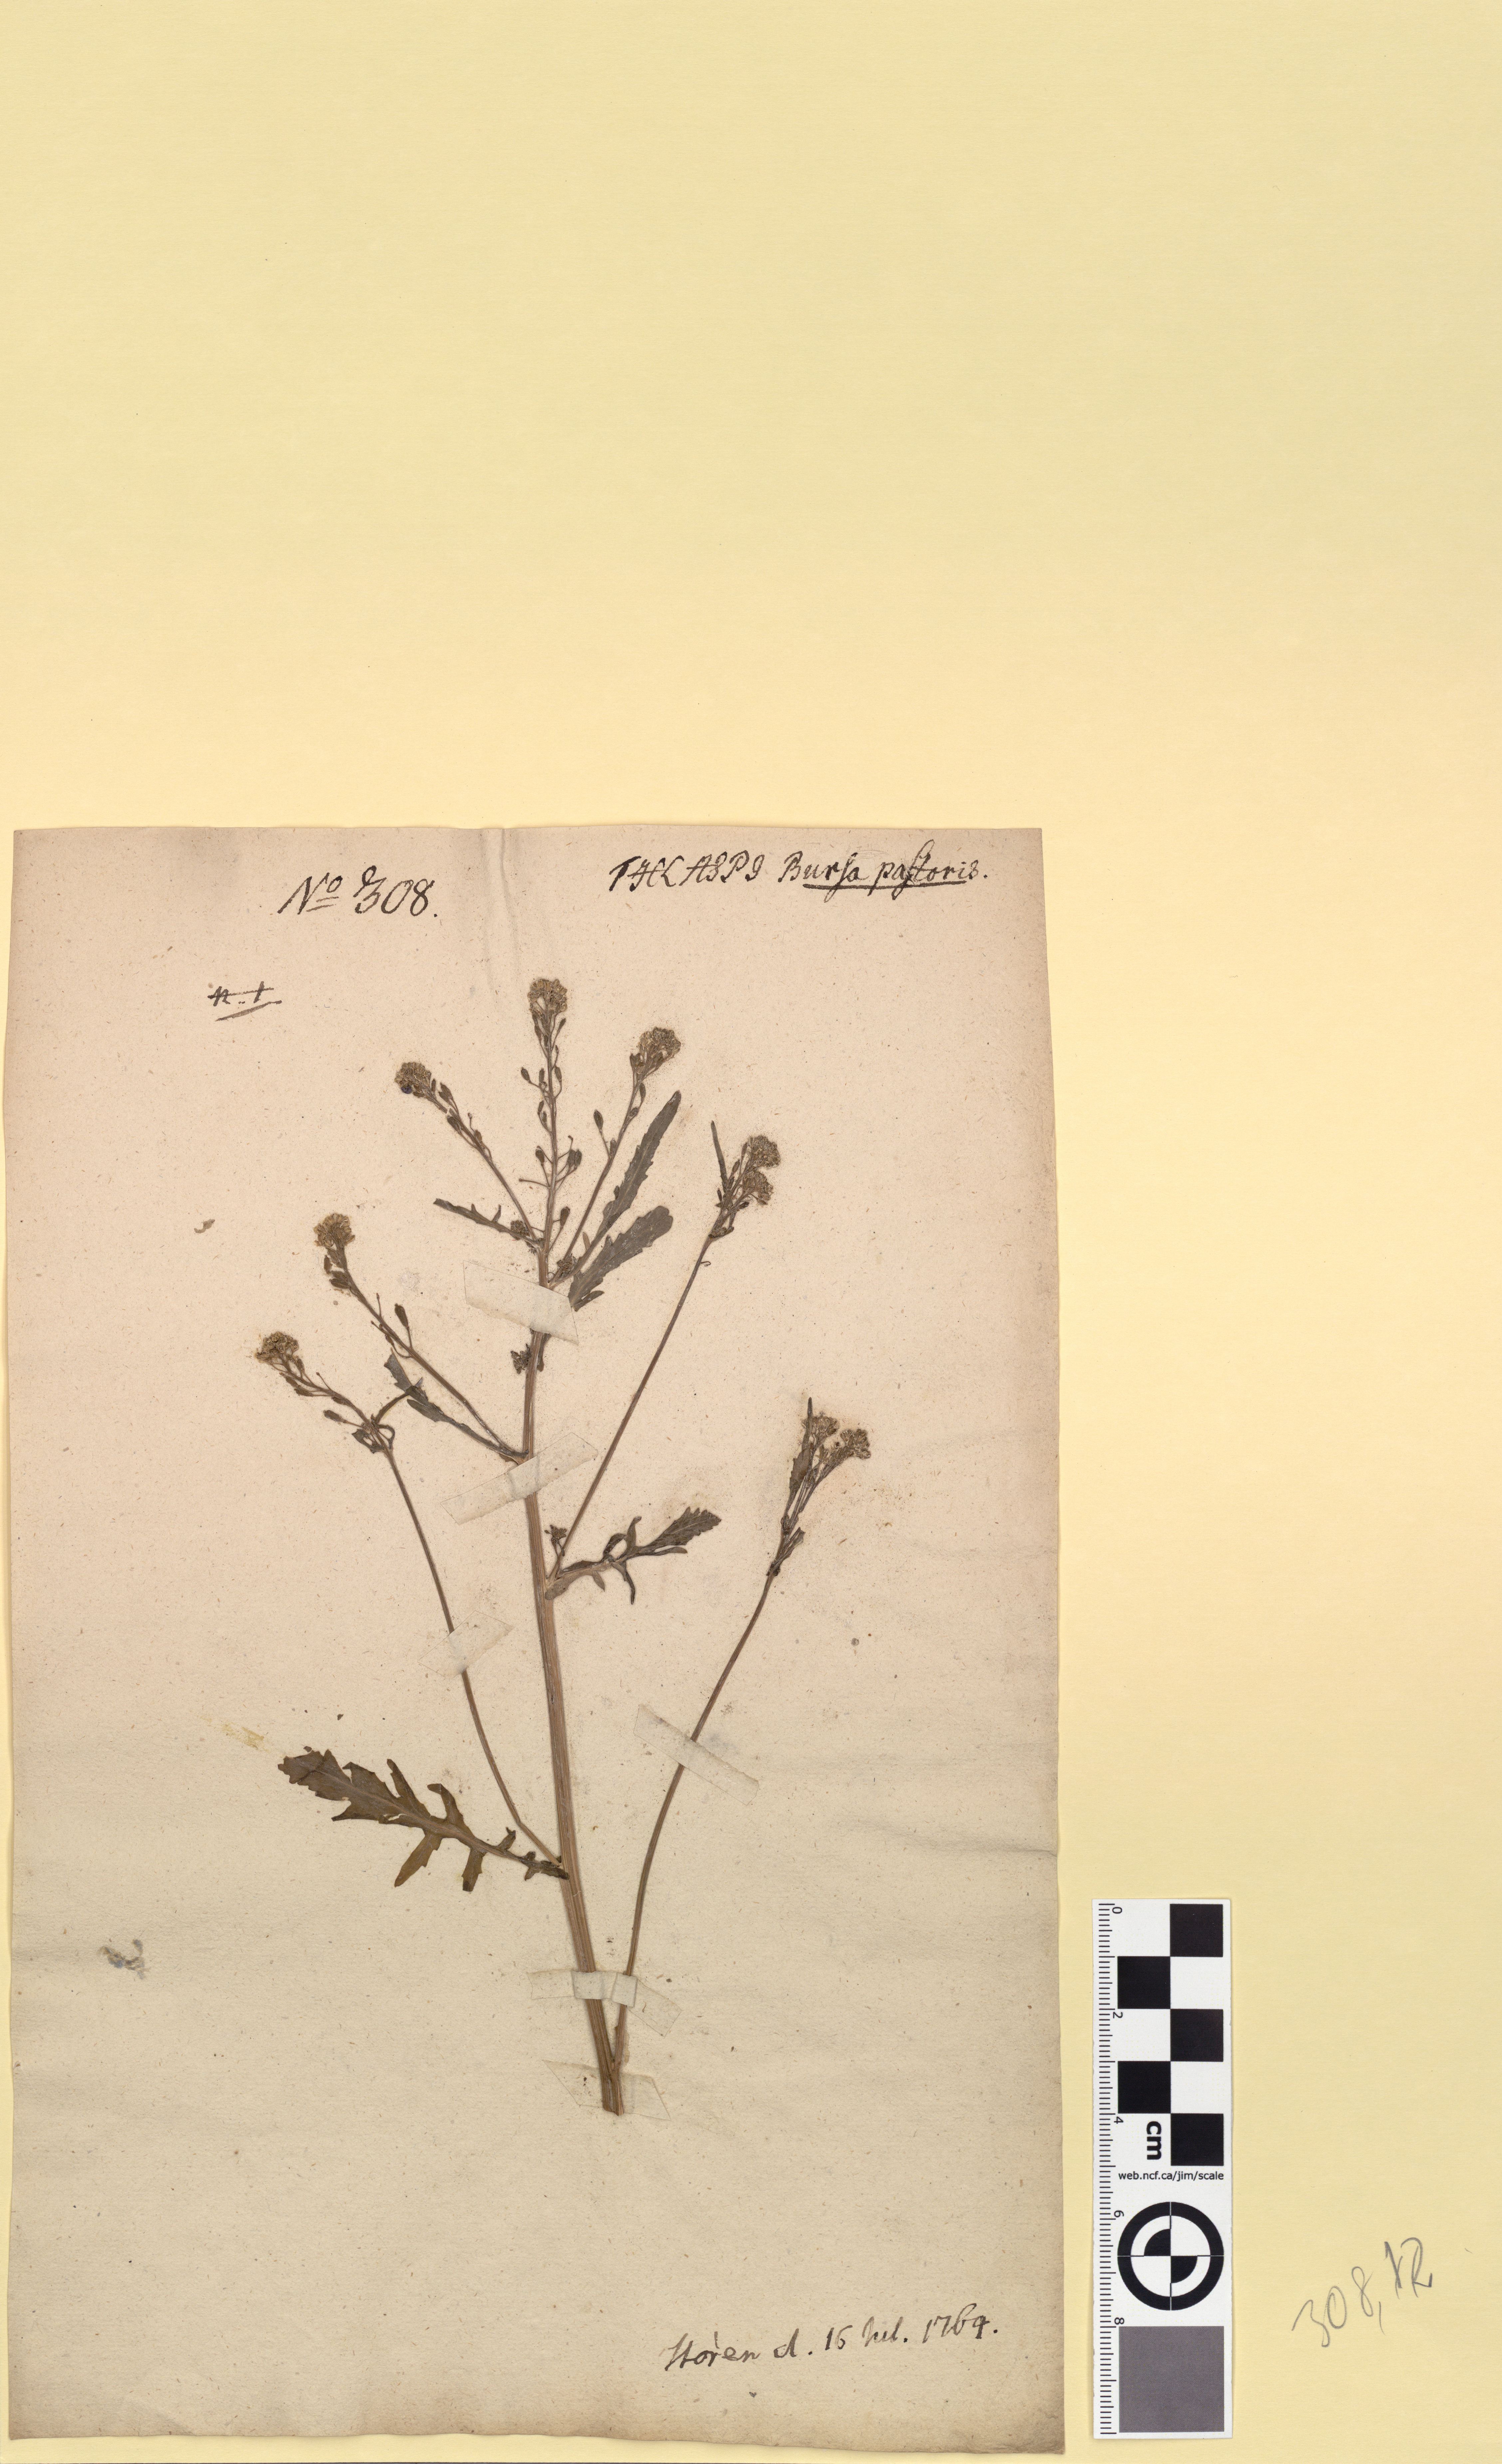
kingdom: Plantae
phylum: Tracheophyta
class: Magnoliopsida
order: Brassicales
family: Brassicaceae
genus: Rorippa
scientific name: Rorippa palustris
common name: Marsh yellow-cress
